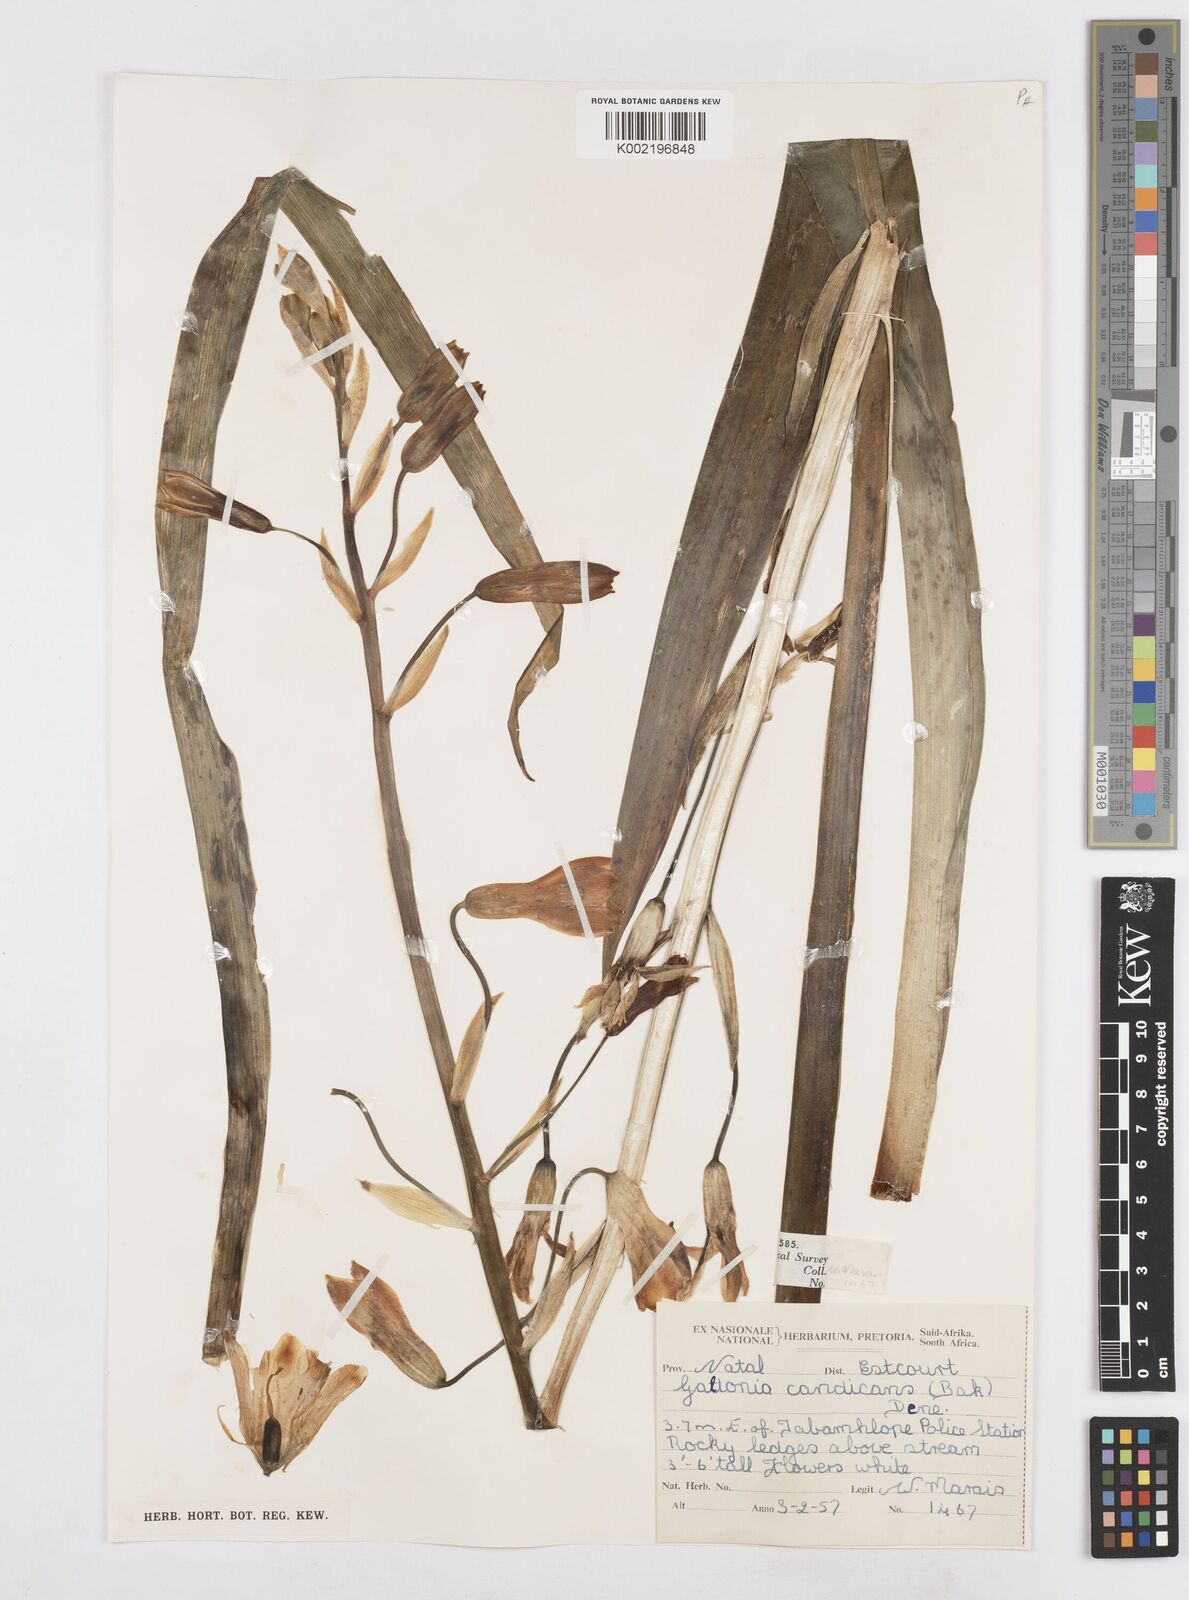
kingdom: Plantae
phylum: Tracheophyta
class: Liliopsida
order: Asparagales
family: Asparagaceae
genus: Ornithogalum
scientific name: Ornithogalum candicans
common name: Summer-hyacinth
